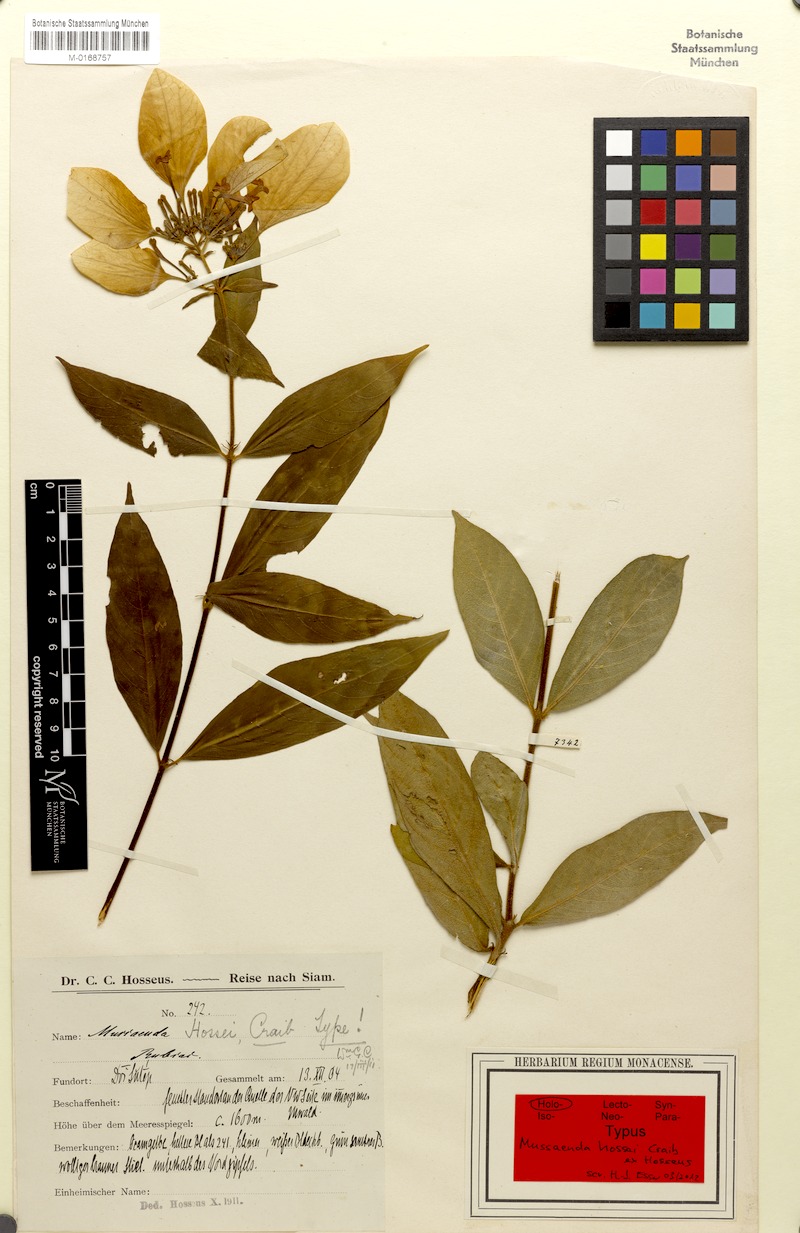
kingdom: Plantae
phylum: Tracheophyta
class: Magnoliopsida
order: Gentianales
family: Rubiaceae
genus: Mussaenda
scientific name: Mussaenda sanderiana
